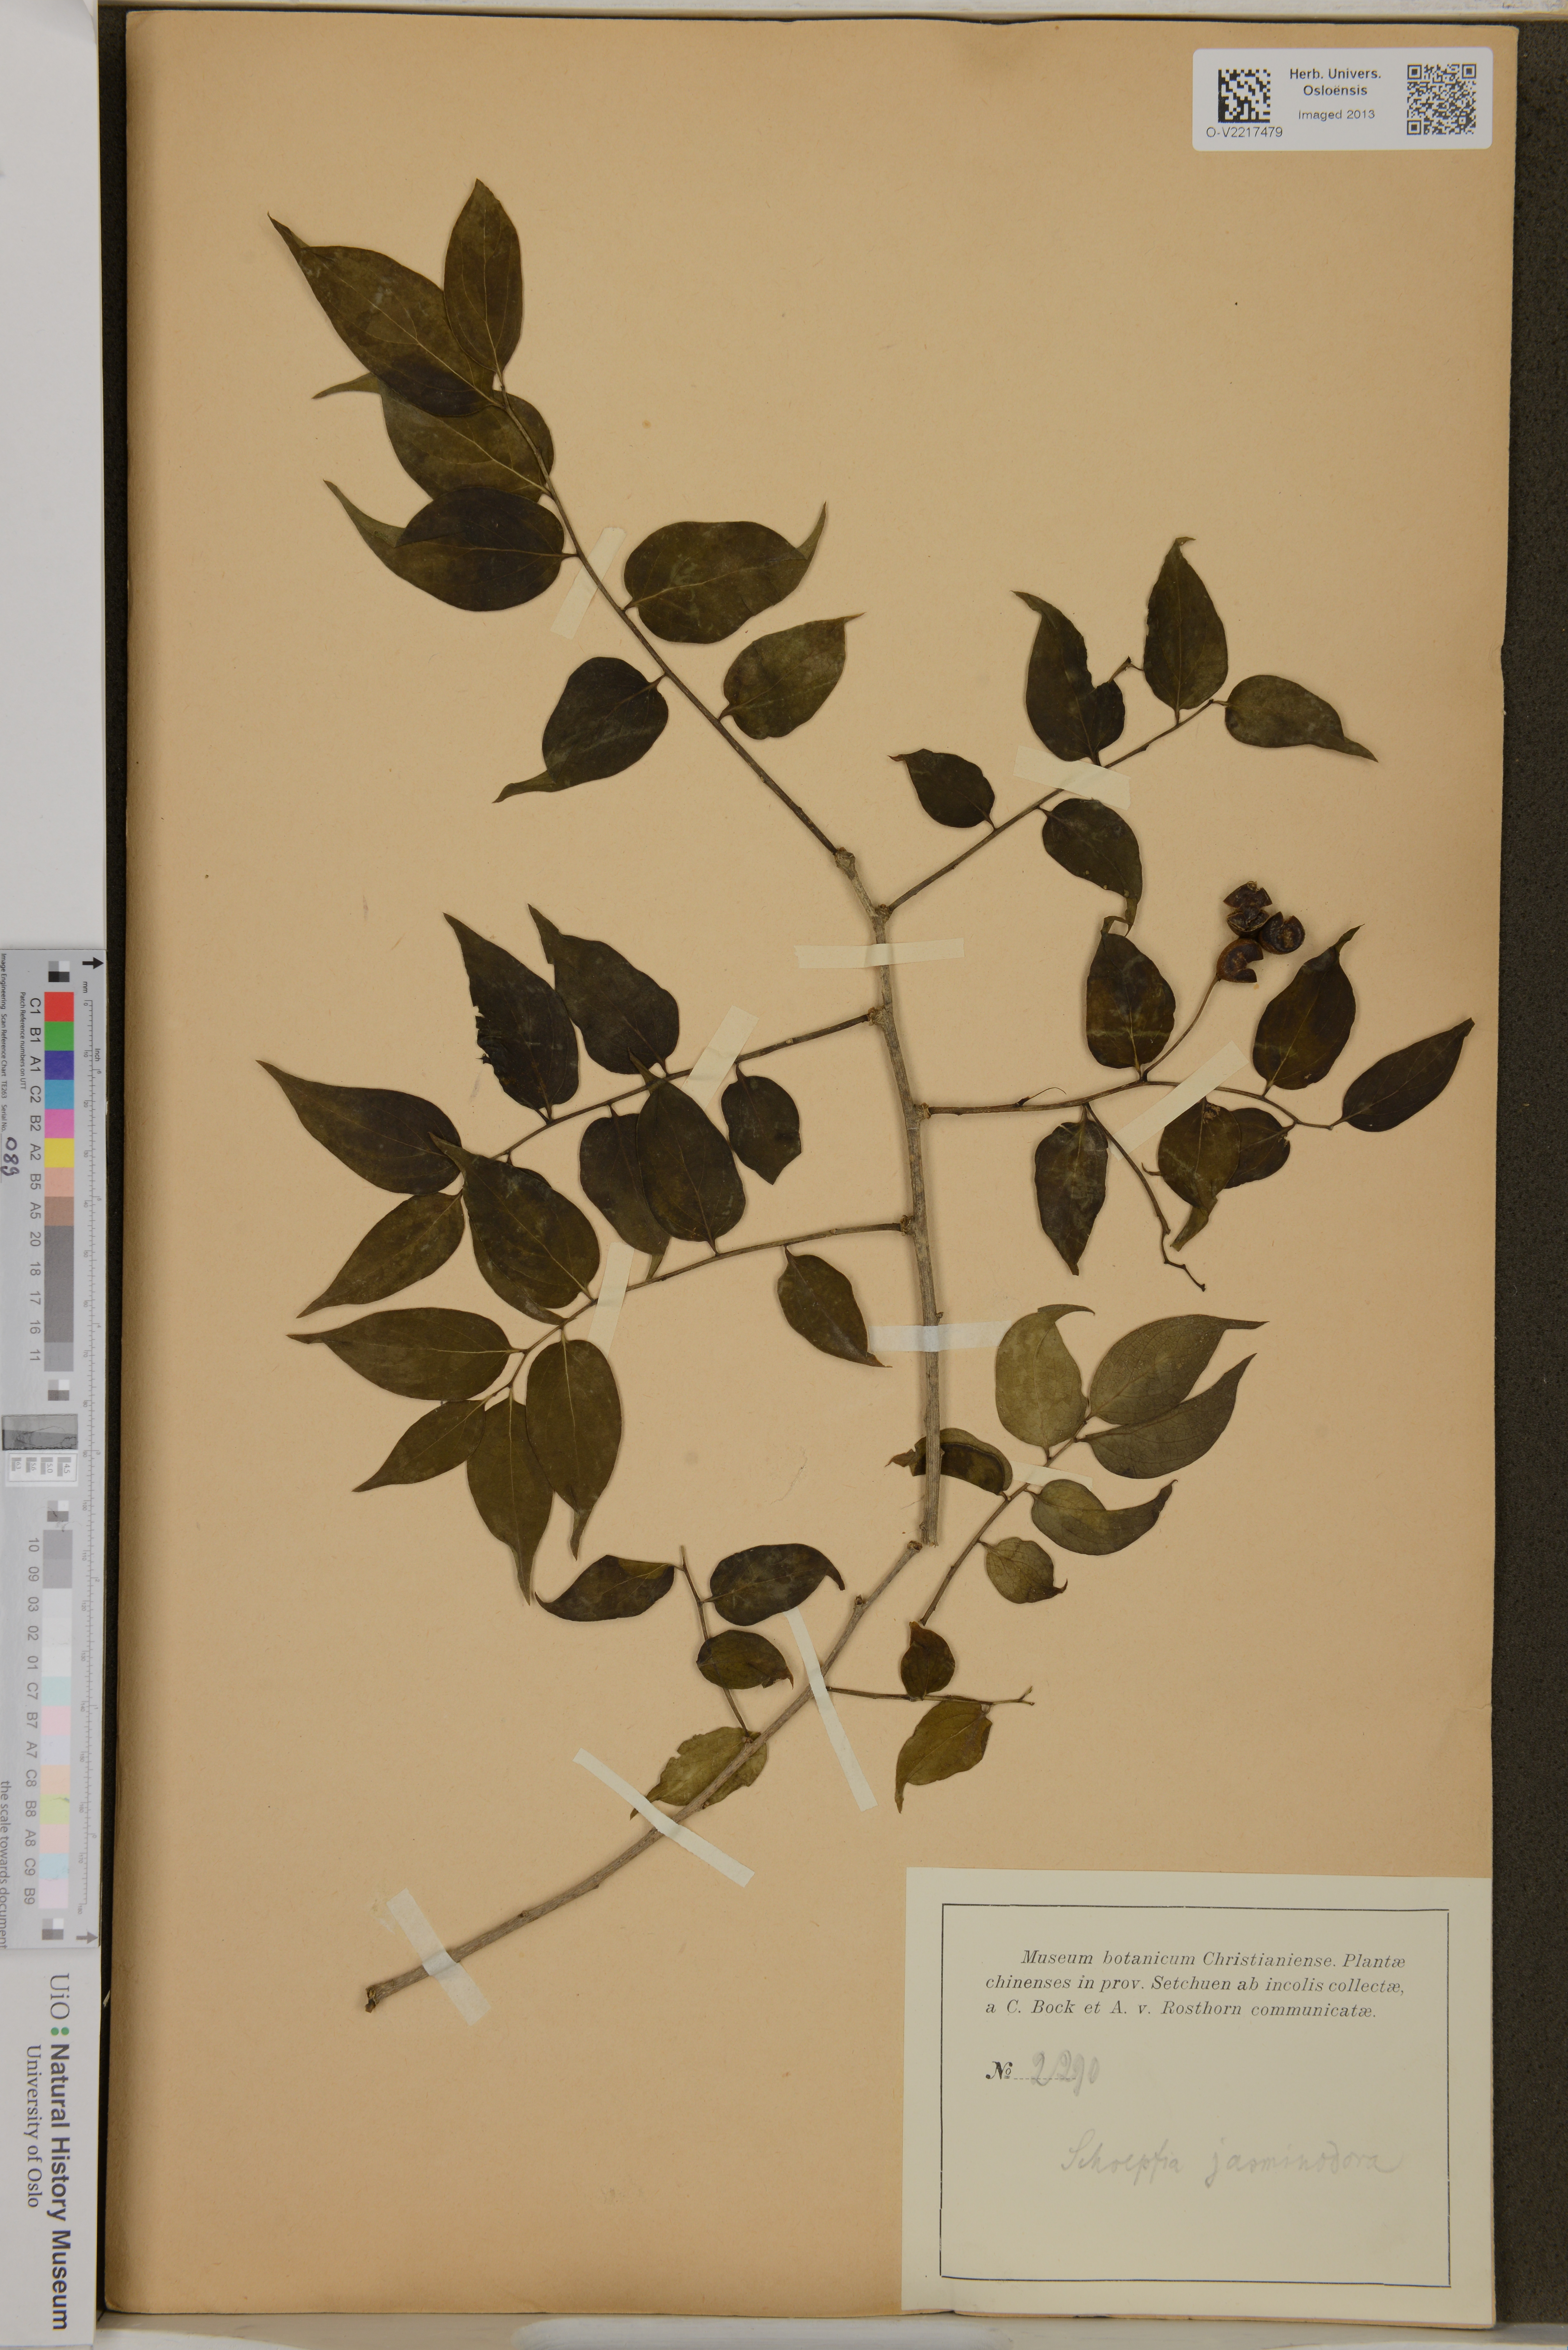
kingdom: Plantae
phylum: Tracheophyta
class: Magnoliopsida
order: Santalales
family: Schoepfiaceae
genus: Schoepfia
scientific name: Schoepfia jasminodora
